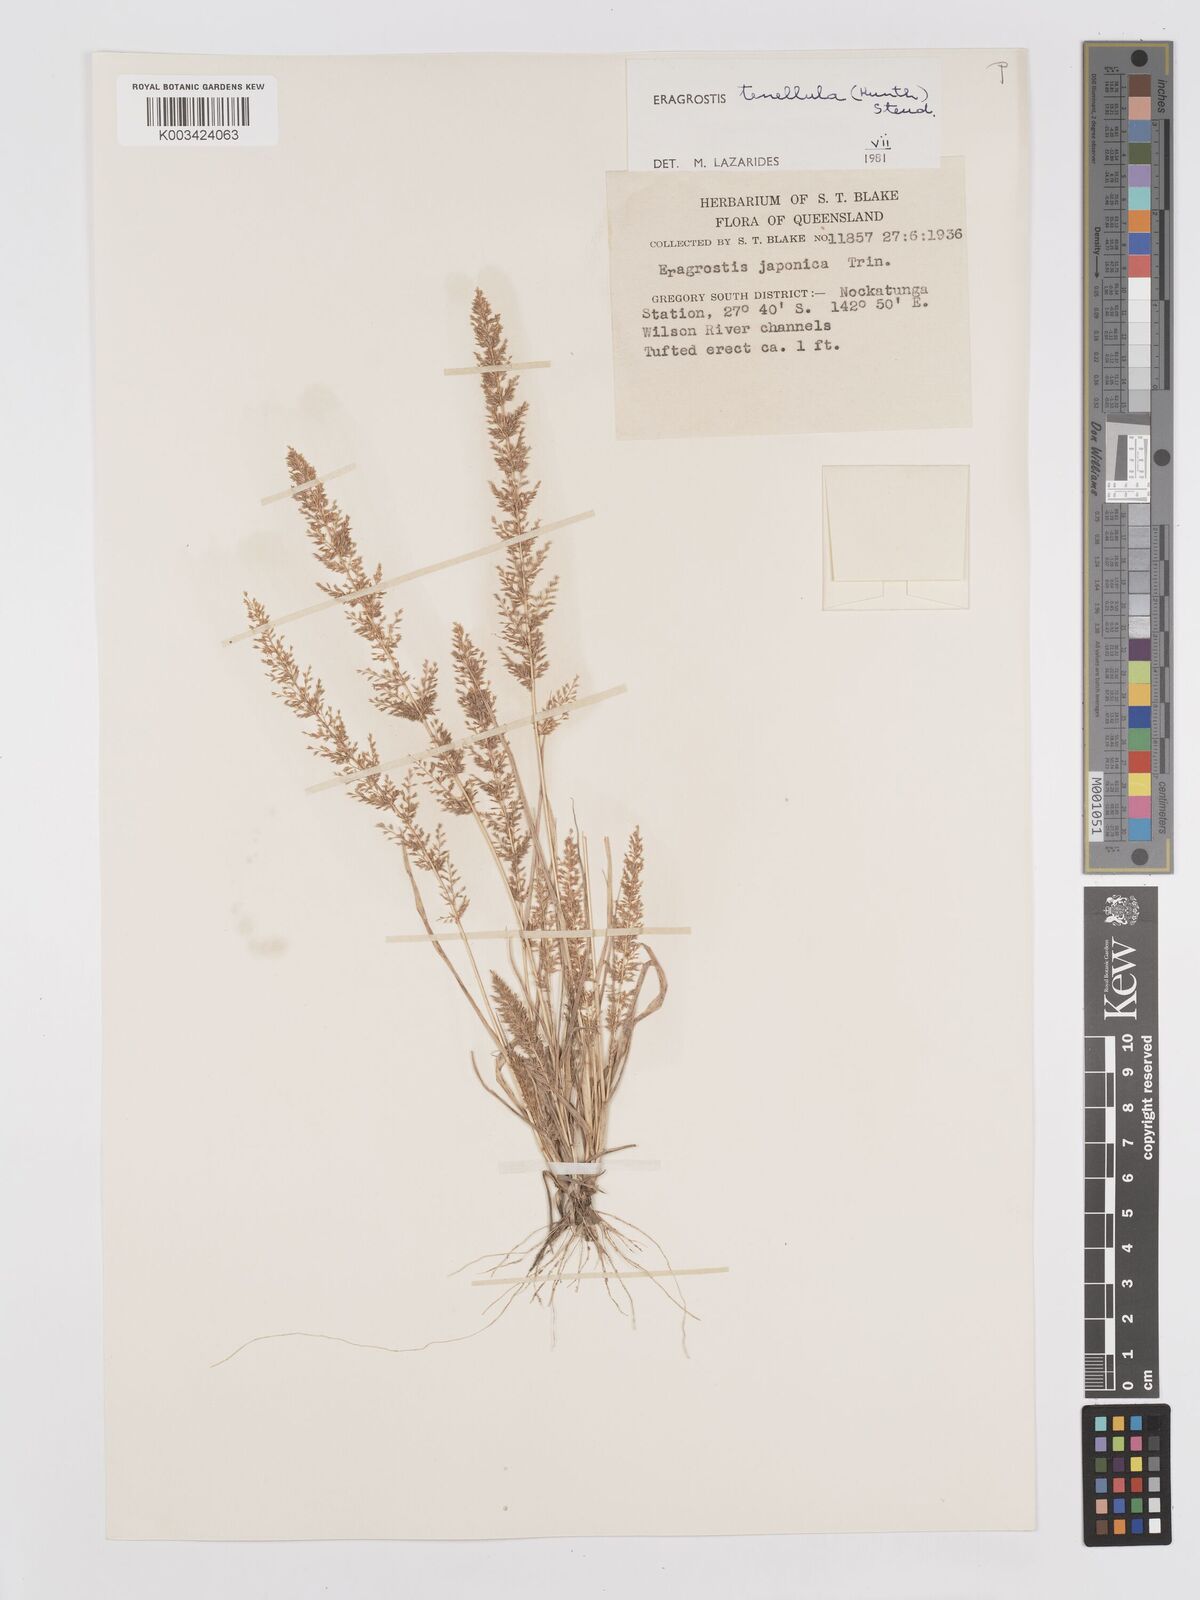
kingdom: Plantae
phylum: Tracheophyta
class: Liliopsida
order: Poales
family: Poaceae
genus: Eragrostis
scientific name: Eragrostis tenellula
